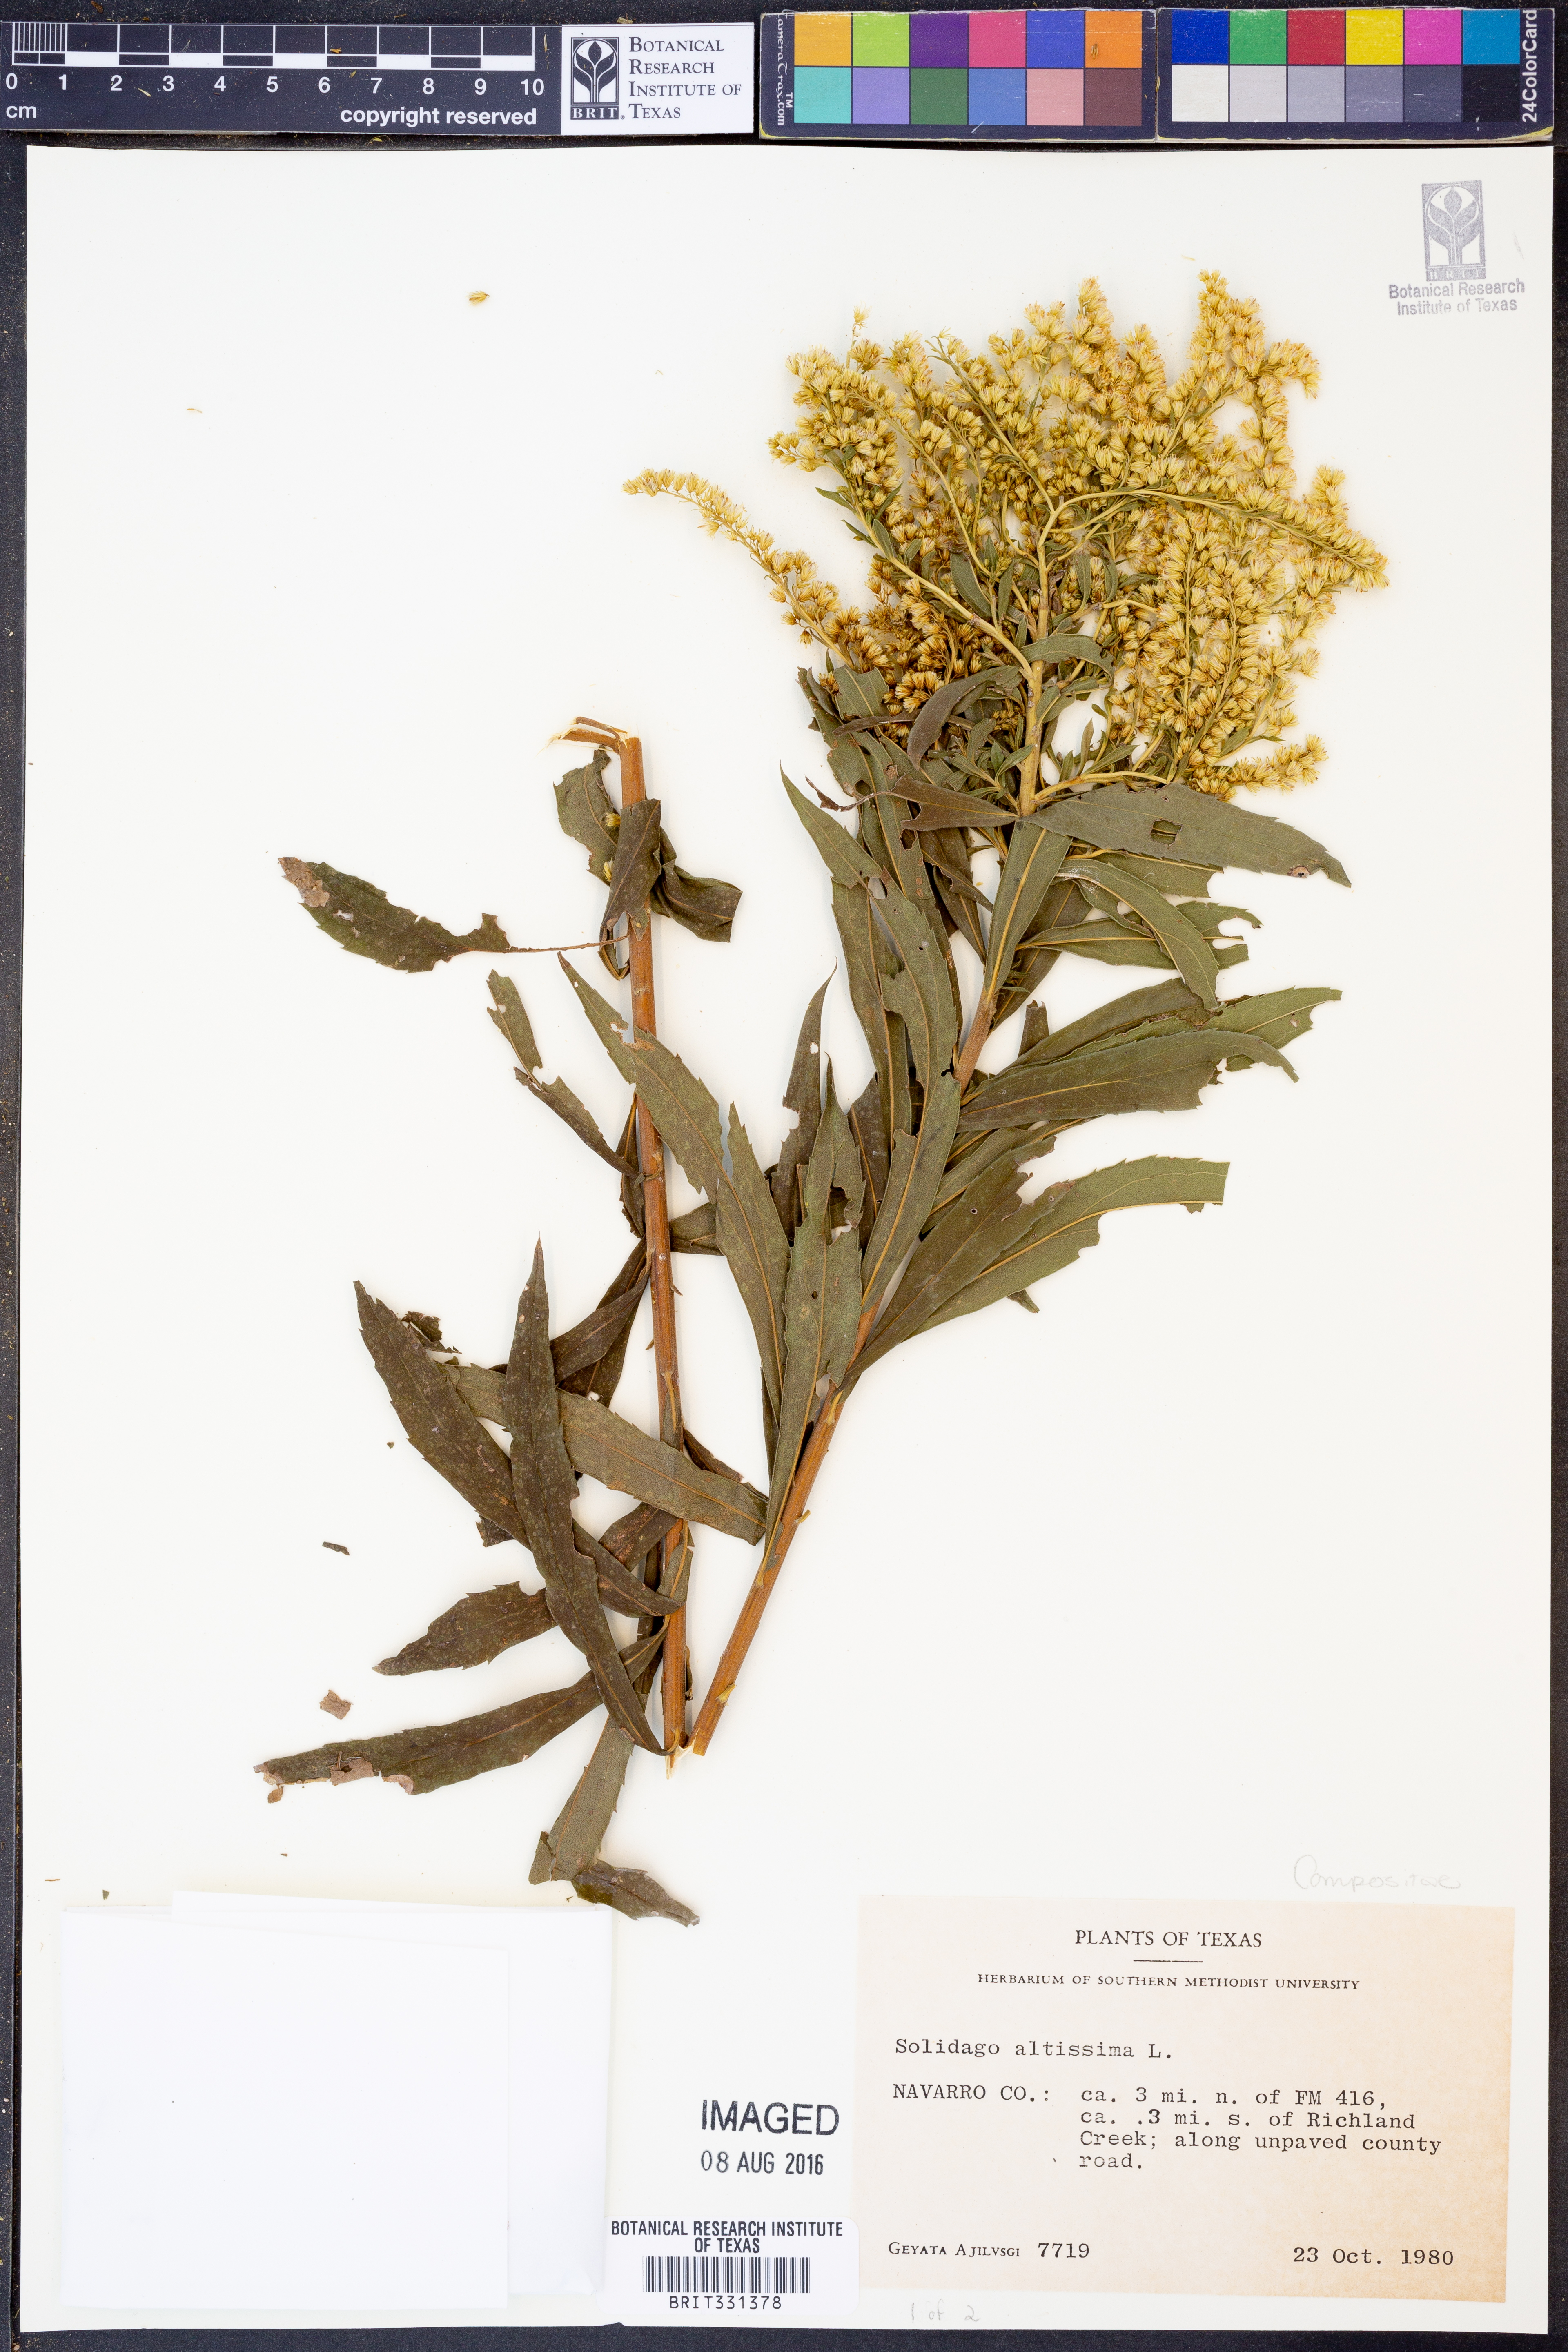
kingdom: Plantae
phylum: Tracheophyta
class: Magnoliopsida
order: Asterales
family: Asteraceae
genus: Solidago
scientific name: Solidago altissima
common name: Late goldenrod
